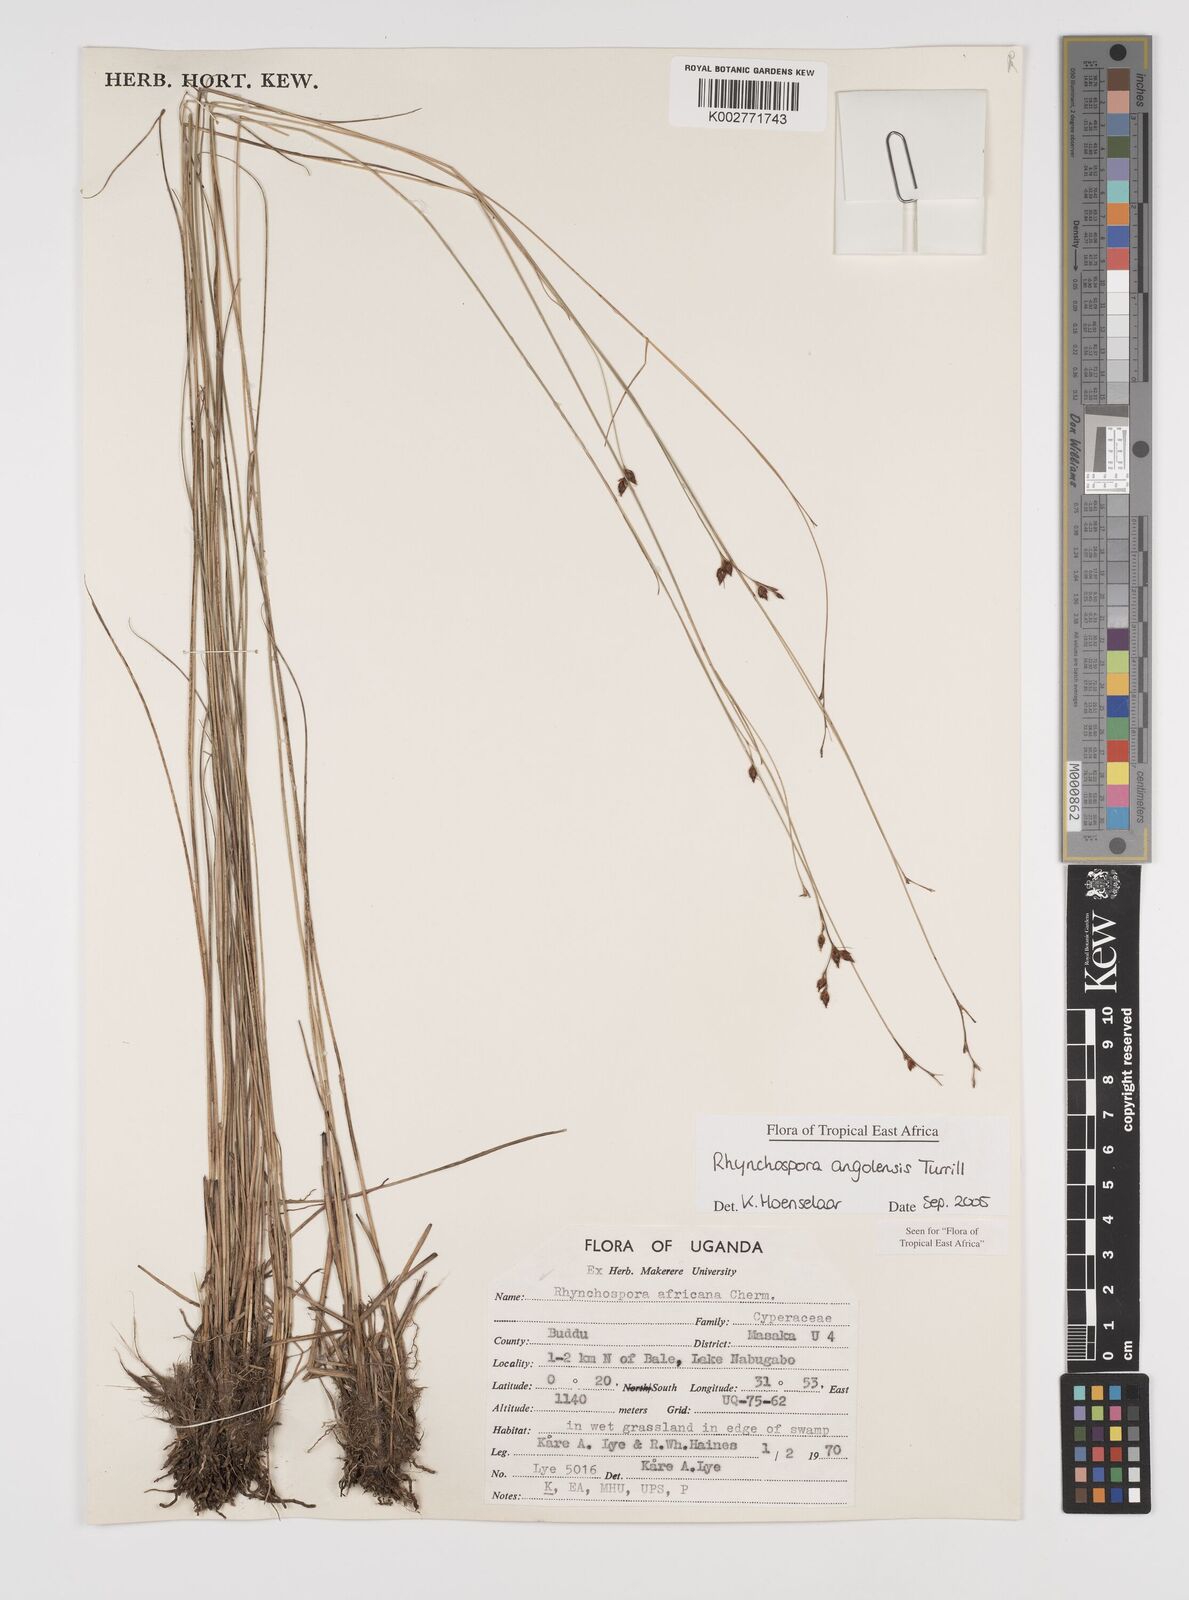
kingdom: Plantae
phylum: Tracheophyta
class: Liliopsida
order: Poales
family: Cyperaceae
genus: Rhynchospora
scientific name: Rhynchospora angolensis
